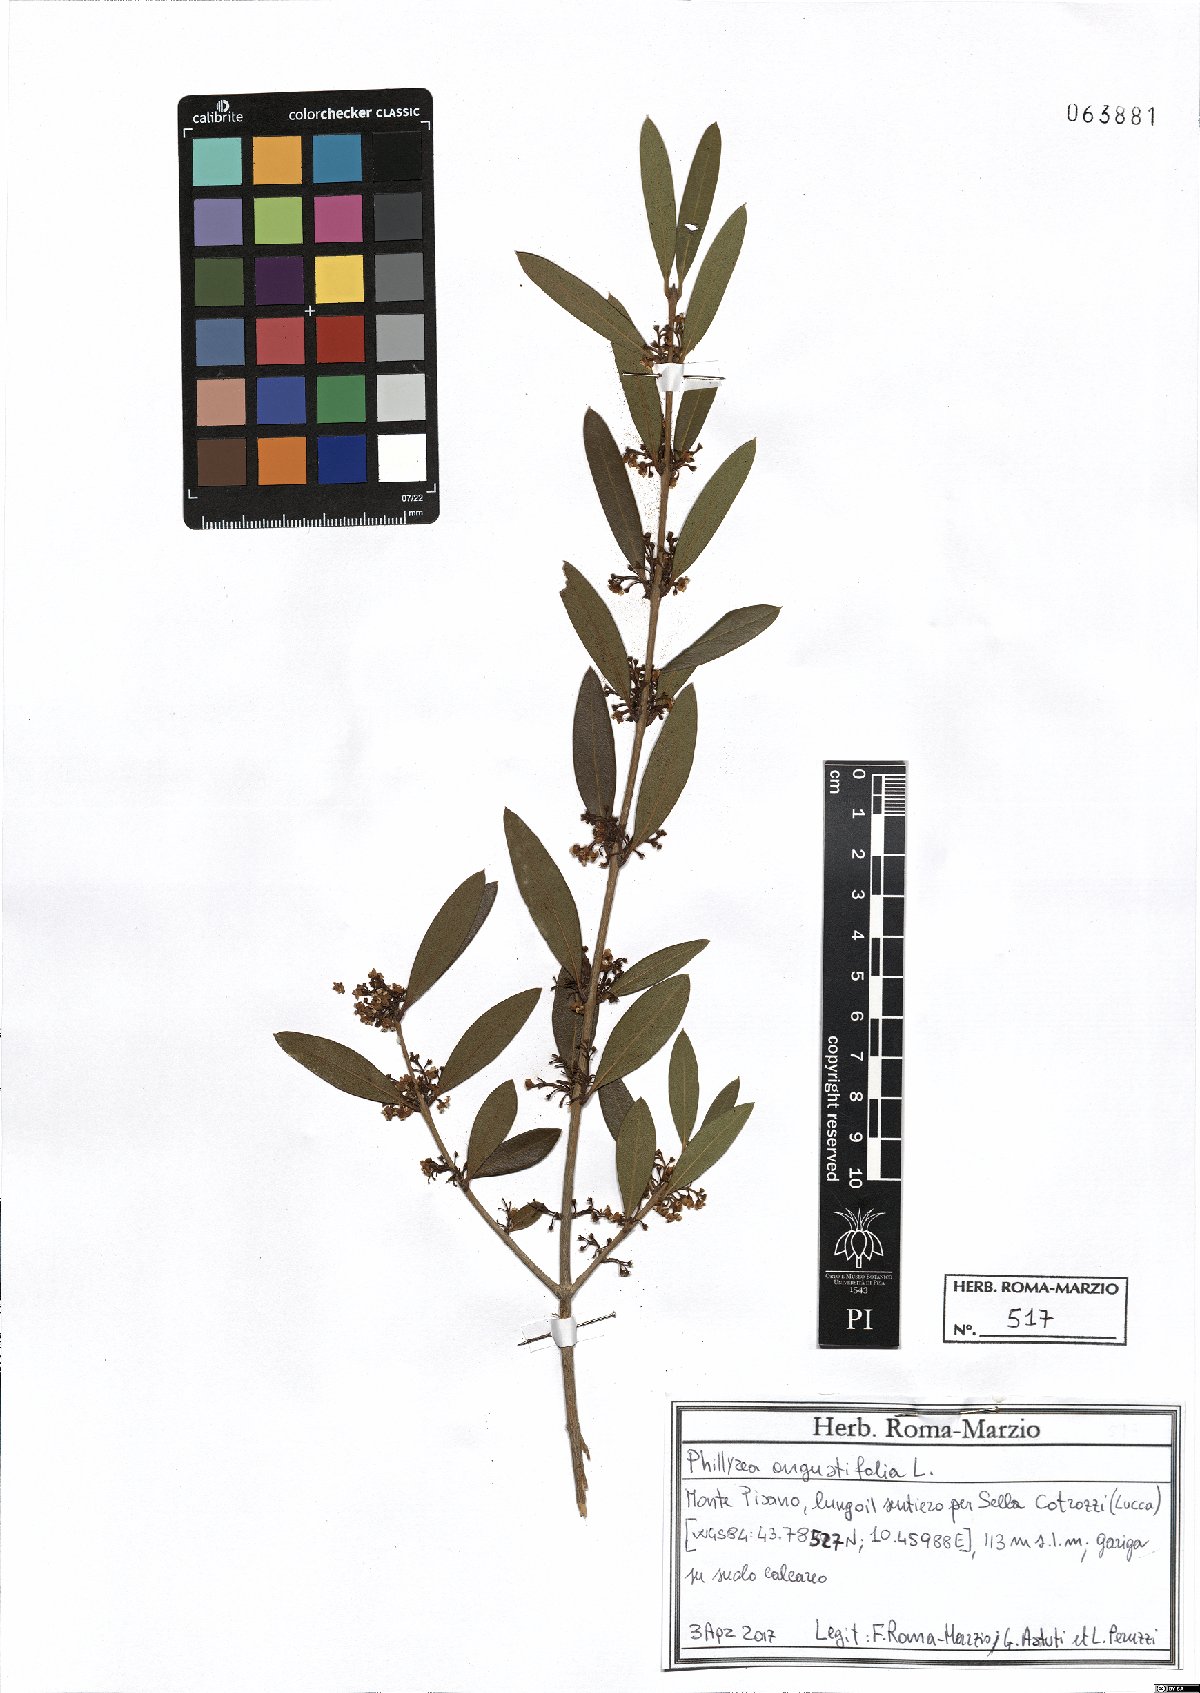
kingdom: Plantae
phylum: Tracheophyta
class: Magnoliopsida
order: Lamiales
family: Oleaceae
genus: Phillyrea
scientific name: Phillyrea angustifolia
